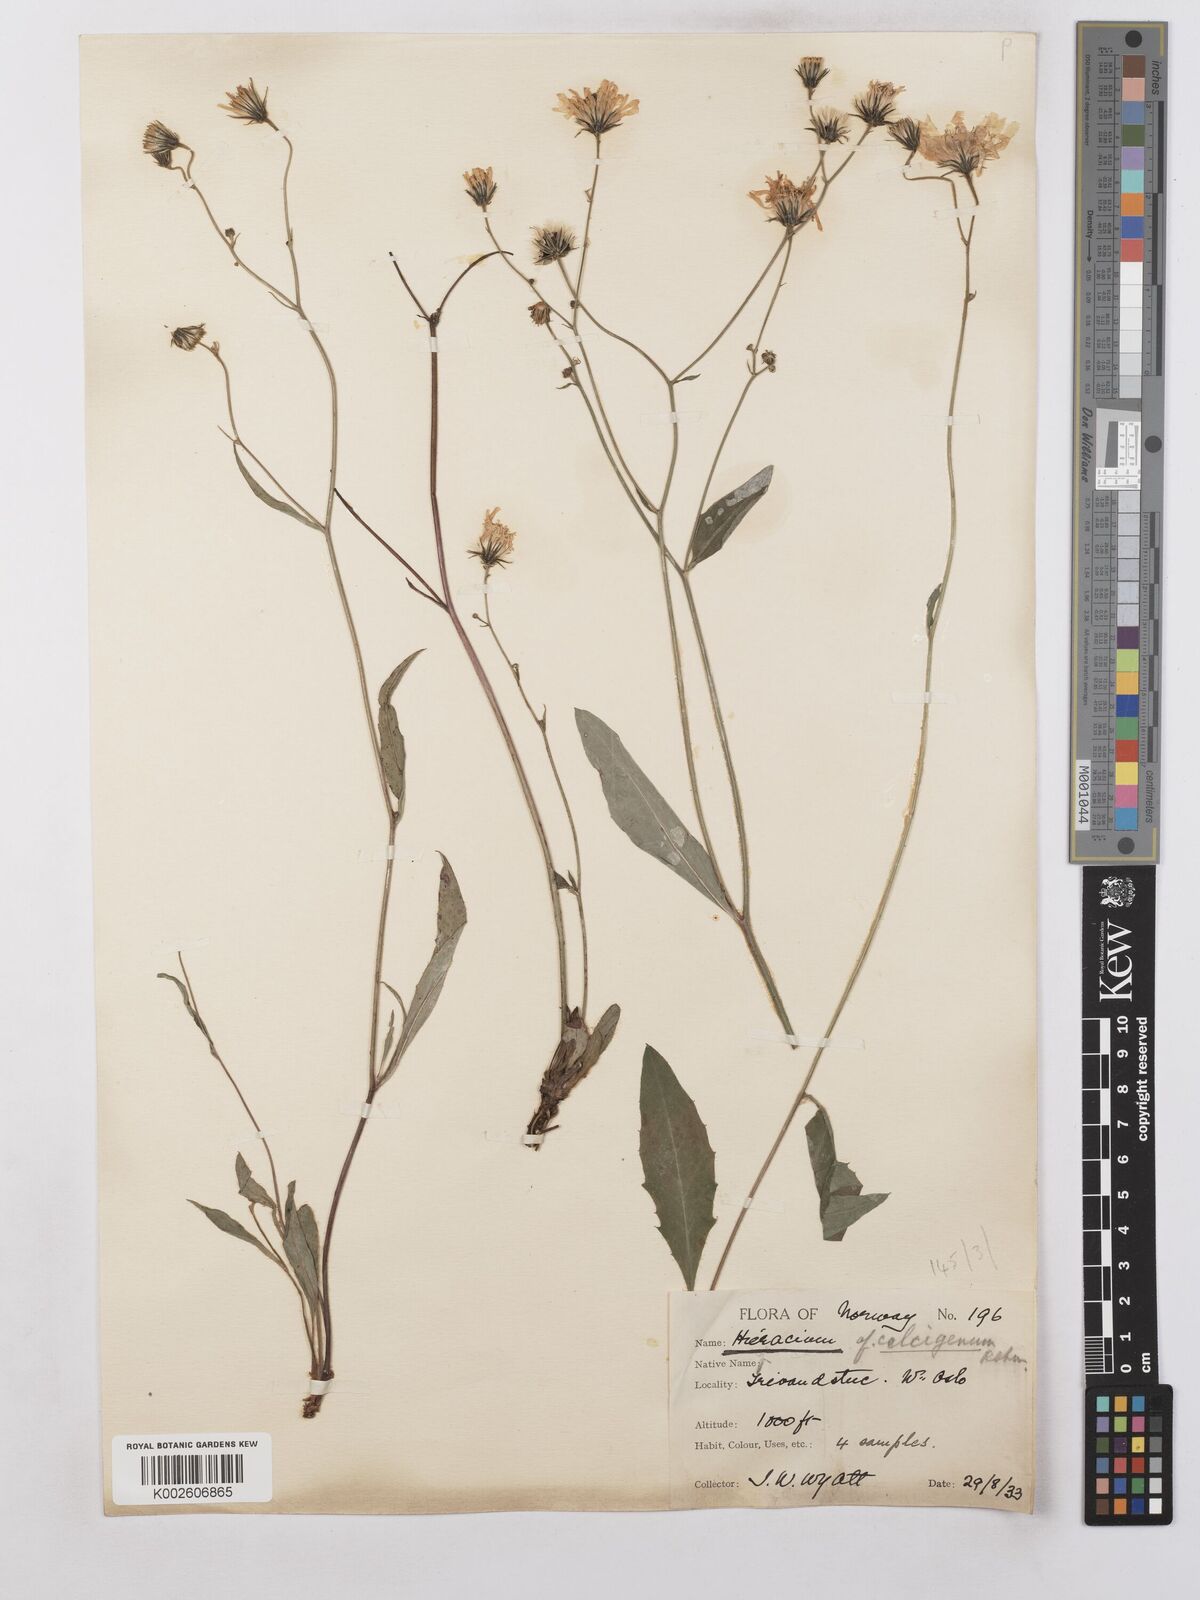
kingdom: Plantae
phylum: Tracheophyta
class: Magnoliopsida
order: Asterales
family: Asteraceae
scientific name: Asteraceae
